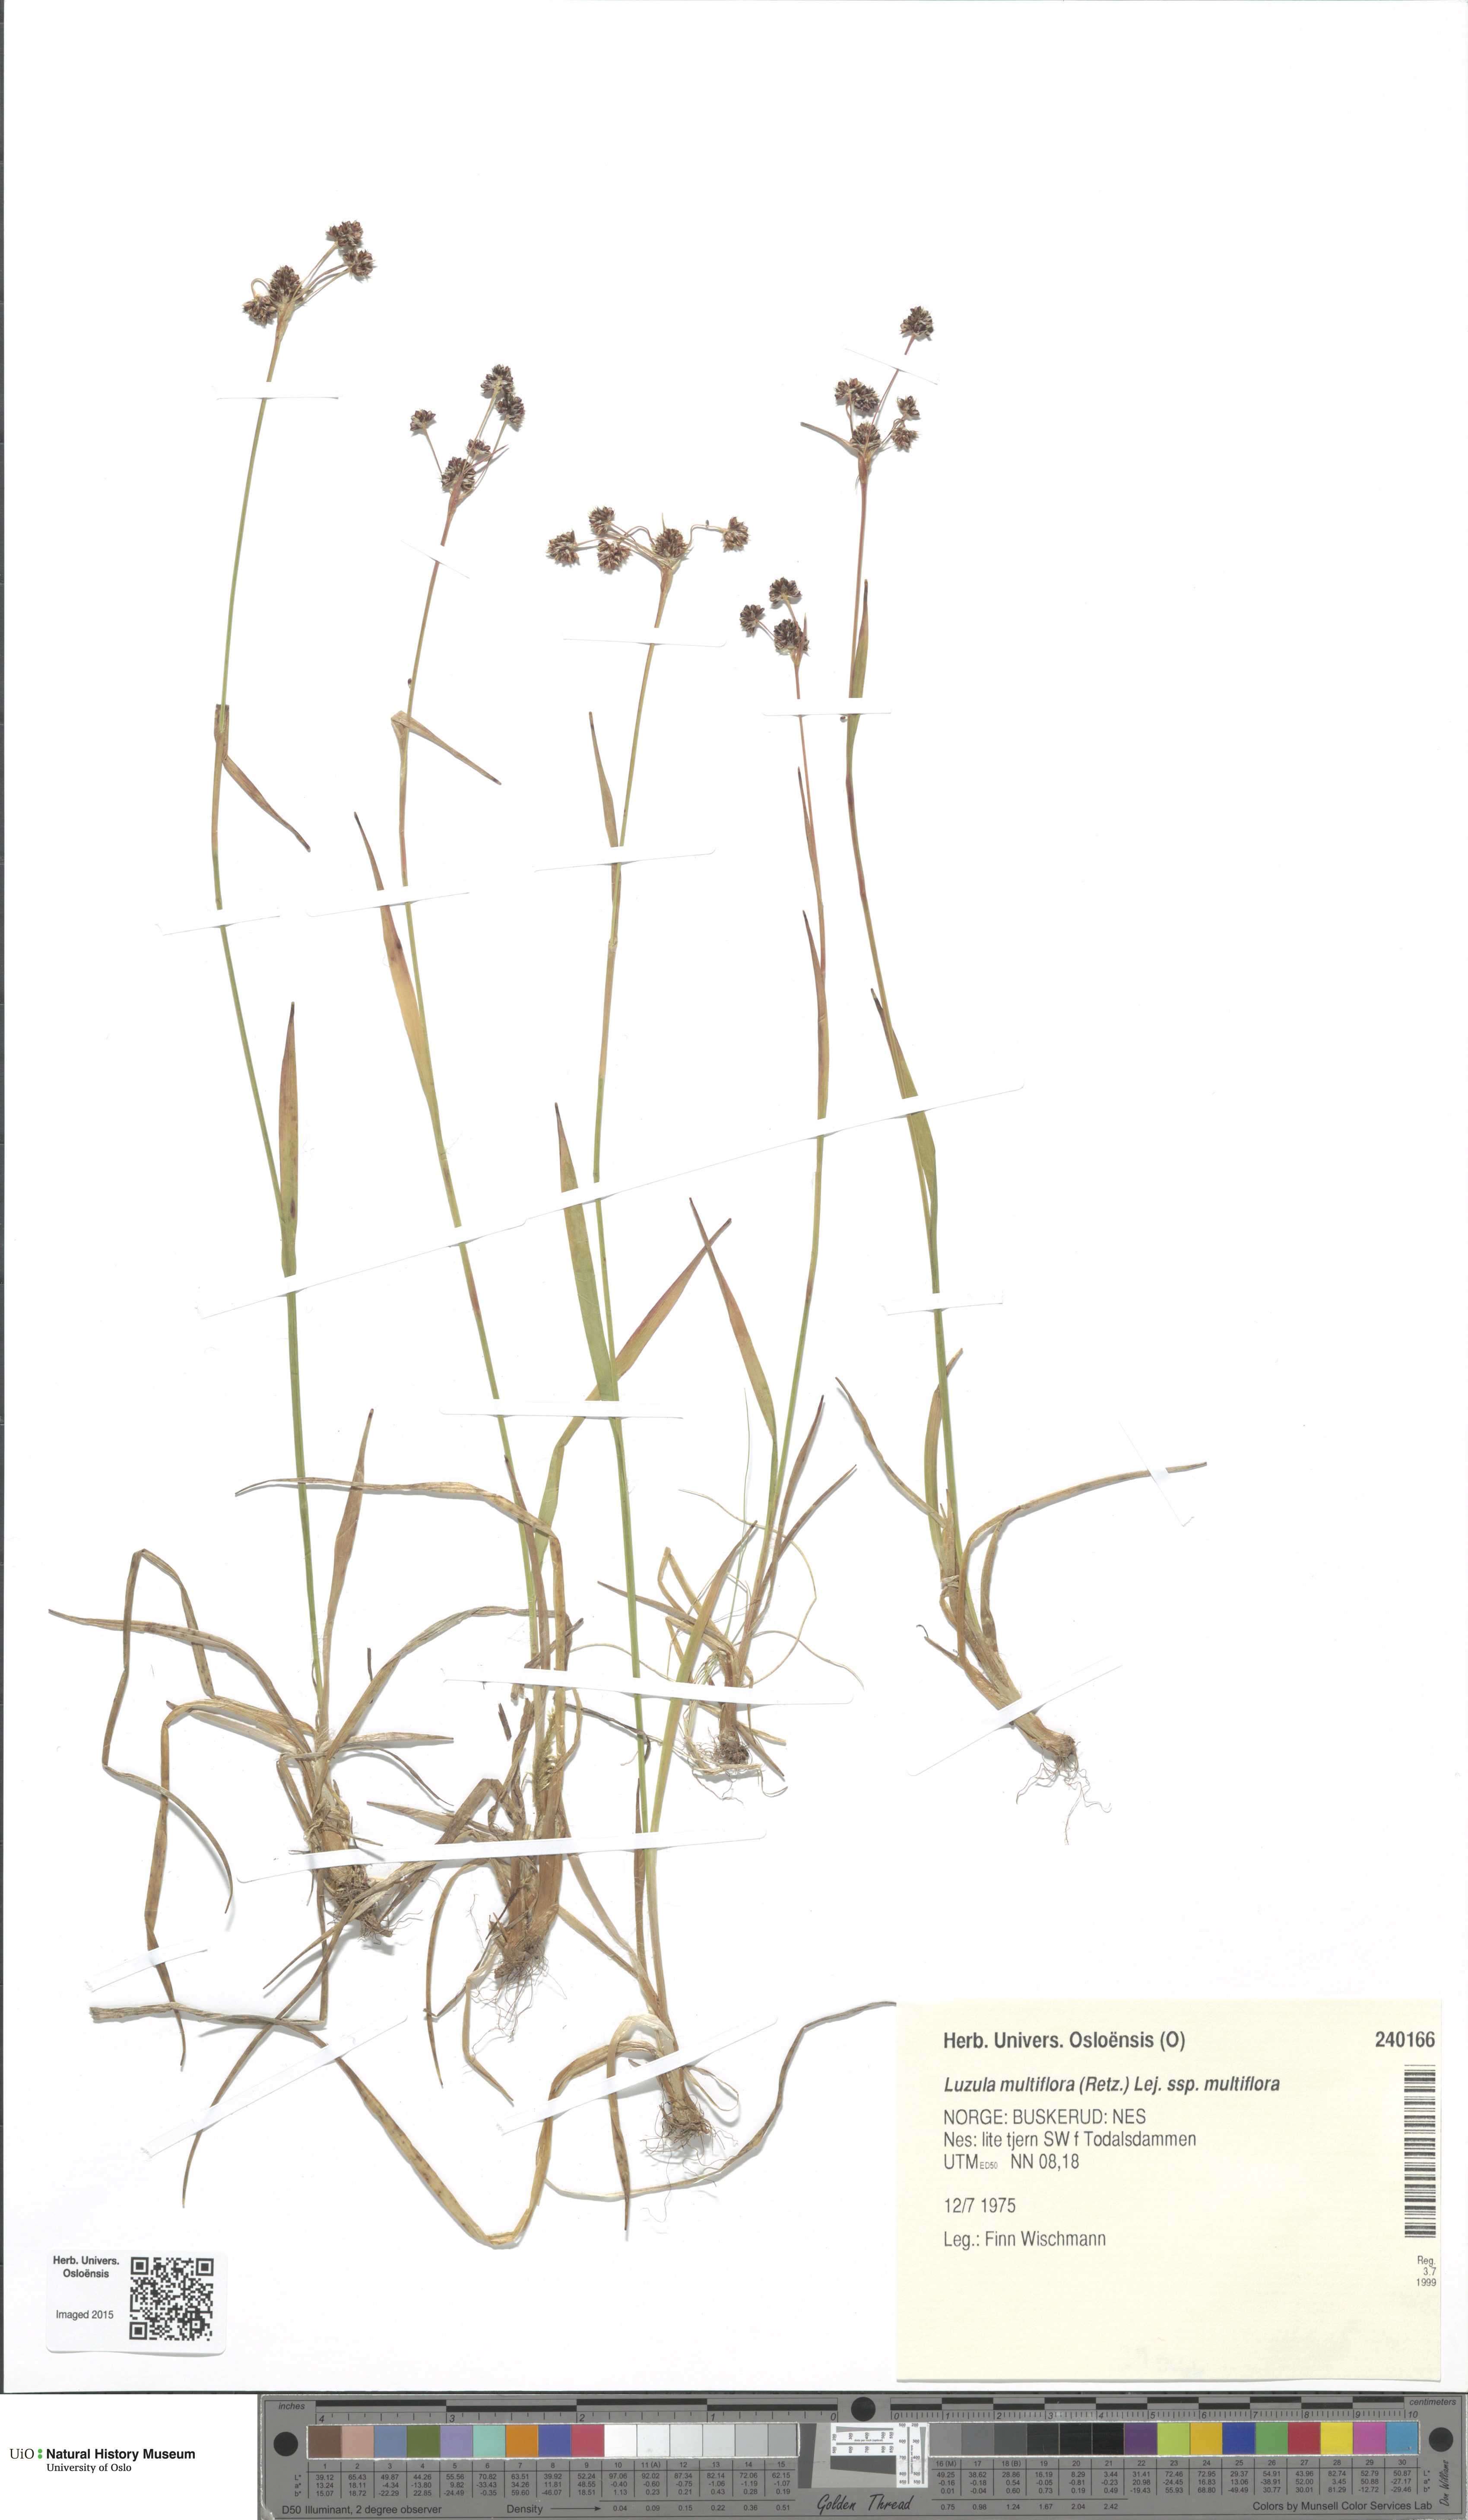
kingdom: Plantae
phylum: Tracheophyta
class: Liliopsida
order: Poales
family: Juncaceae
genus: Luzula
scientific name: Luzula multiflora
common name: Heath wood-rush
